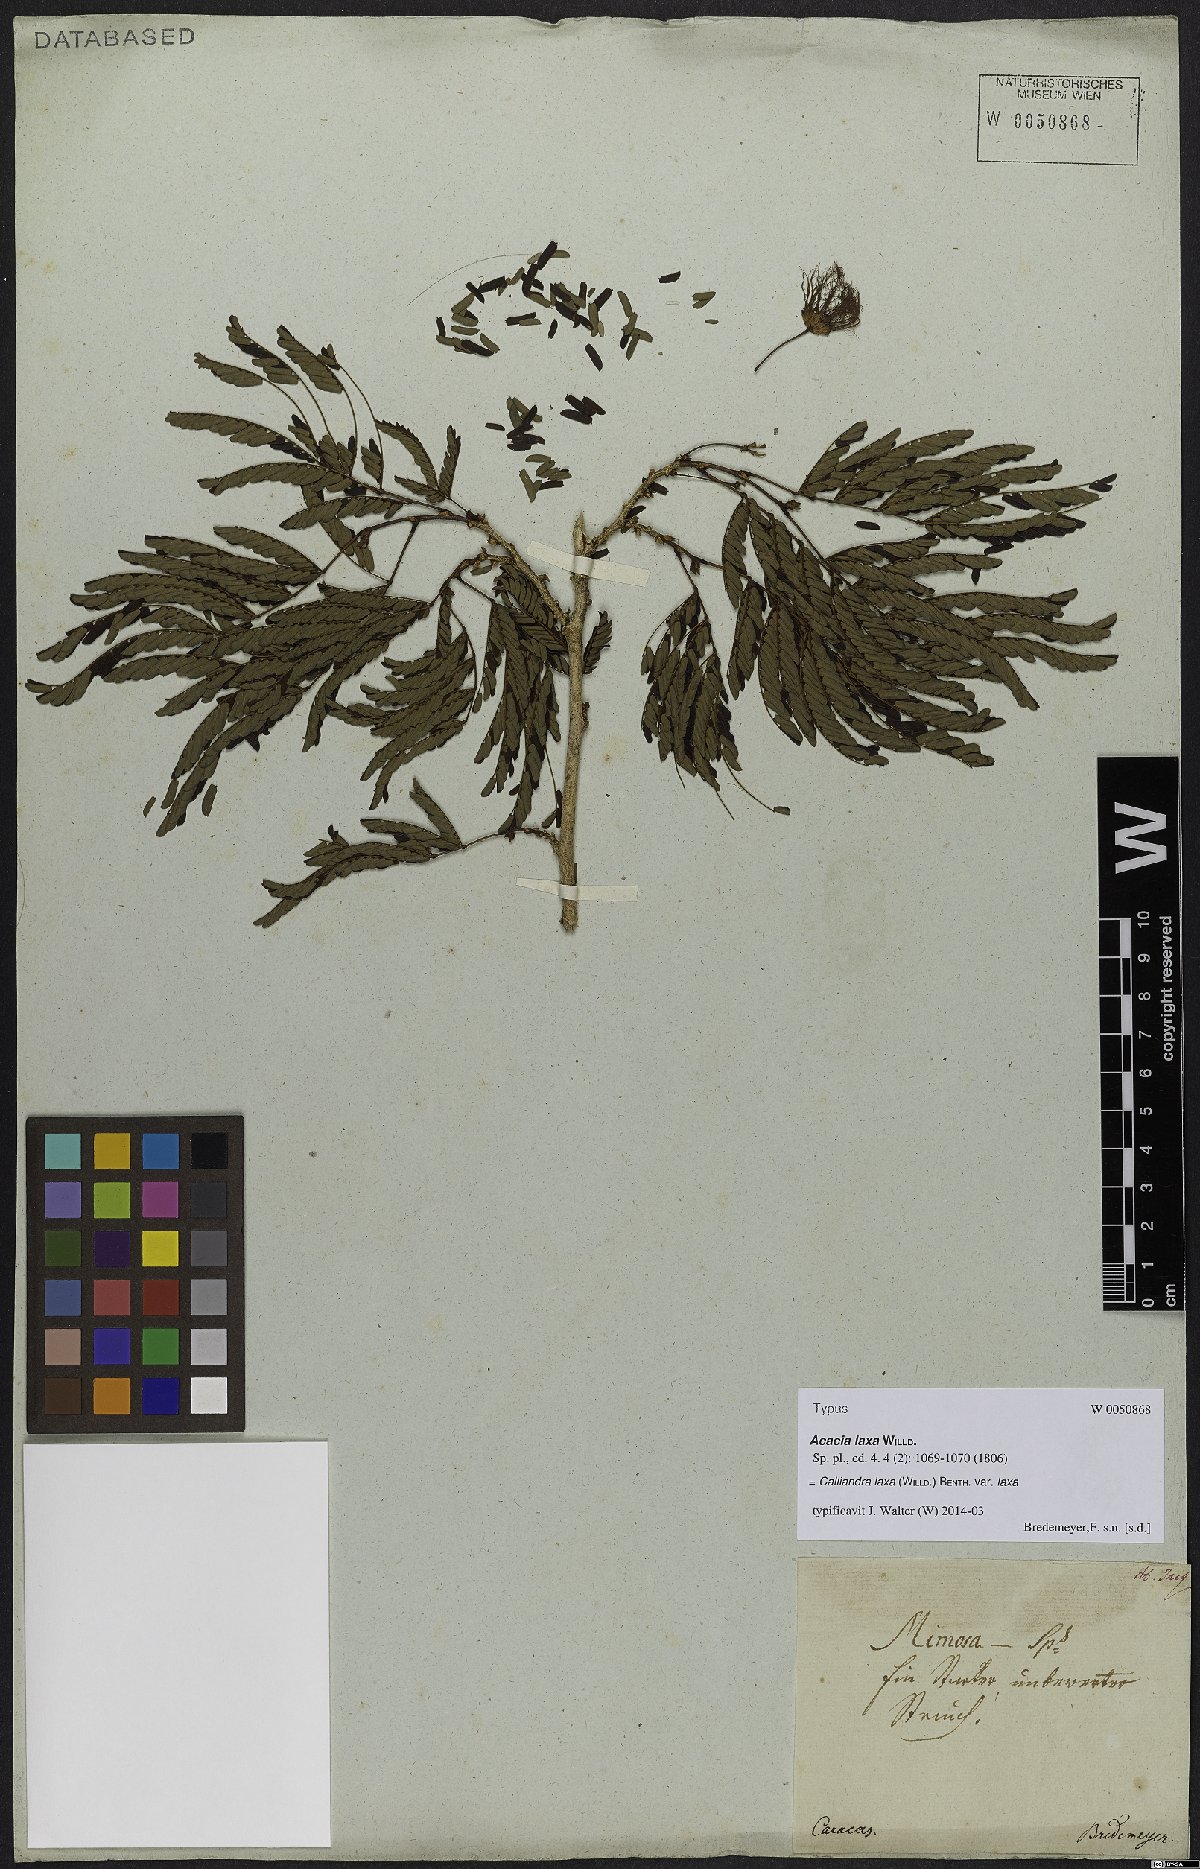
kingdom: Plantae
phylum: Tracheophyta
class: Magnoliopsida
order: Fabales
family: Fabaceae
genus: Calliandra
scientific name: Calliandra laxa
